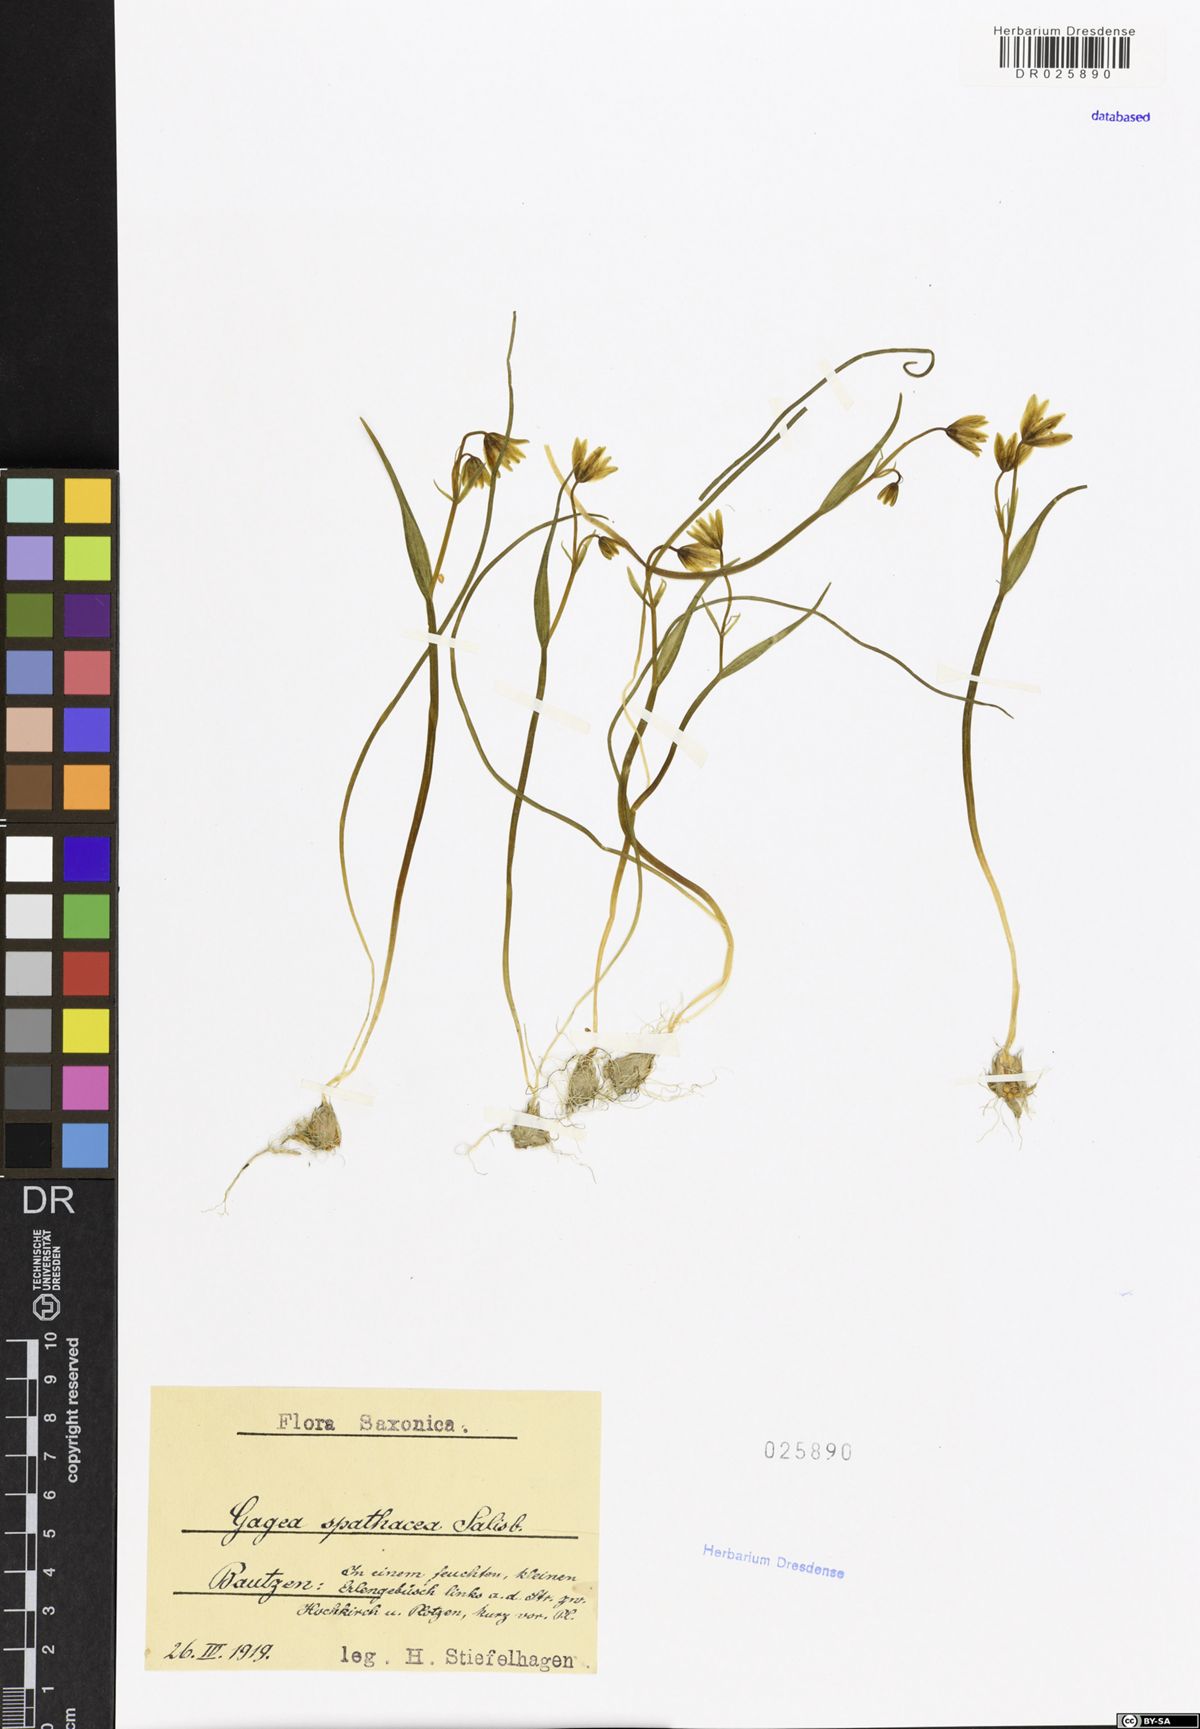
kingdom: Plantae
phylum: Tracheophyta
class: Liliopsida
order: Liliales
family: Liliaceae
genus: Gagea
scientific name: Gagea spathacea
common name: Belgian gagea
